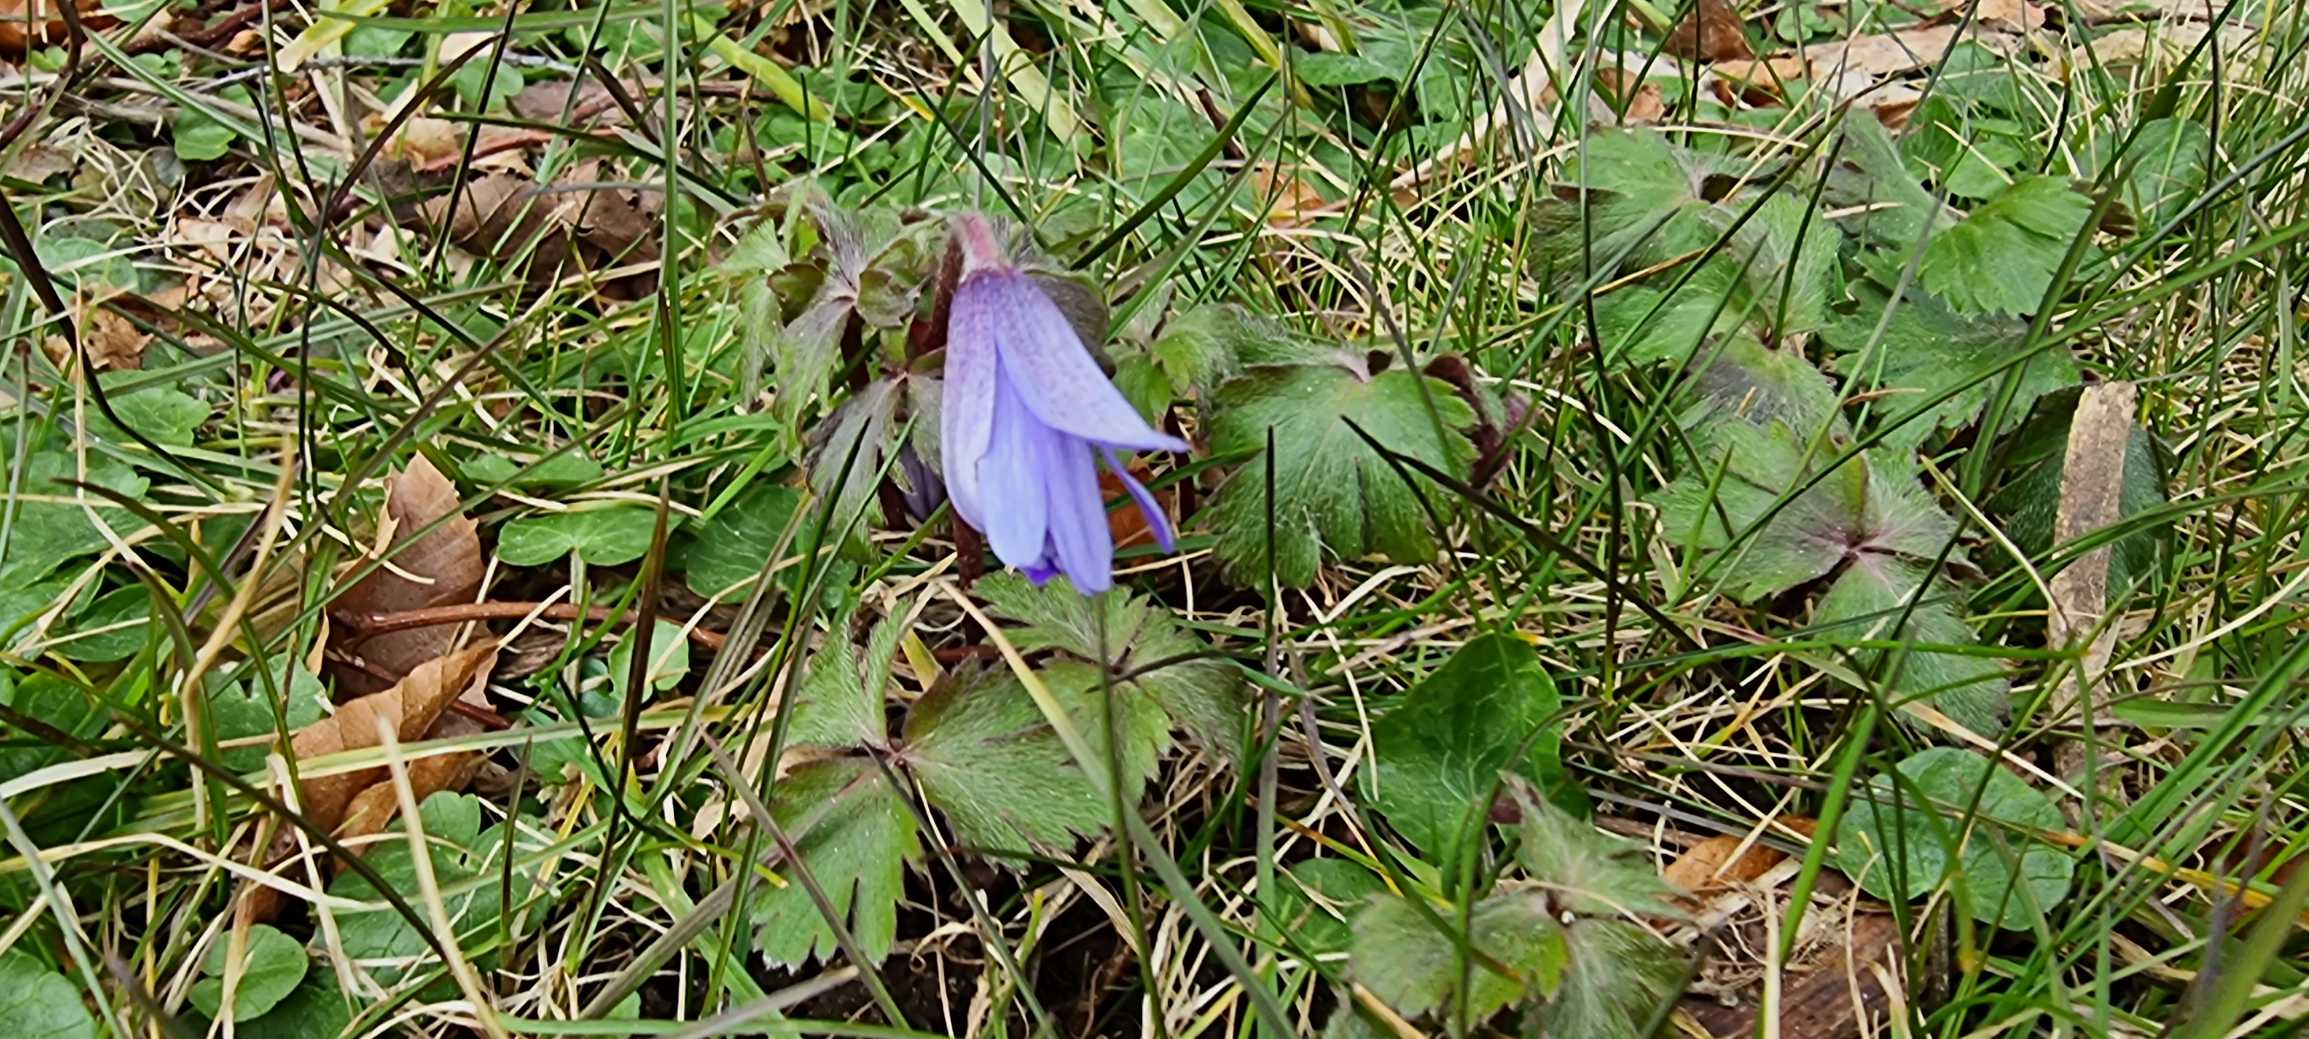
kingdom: Plantae
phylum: Tracheophyta
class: Magnoliopsida
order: Ranunculales
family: Ranunculaceae
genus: Anemone
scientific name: Anemone blanda
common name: Balkan-anemone
